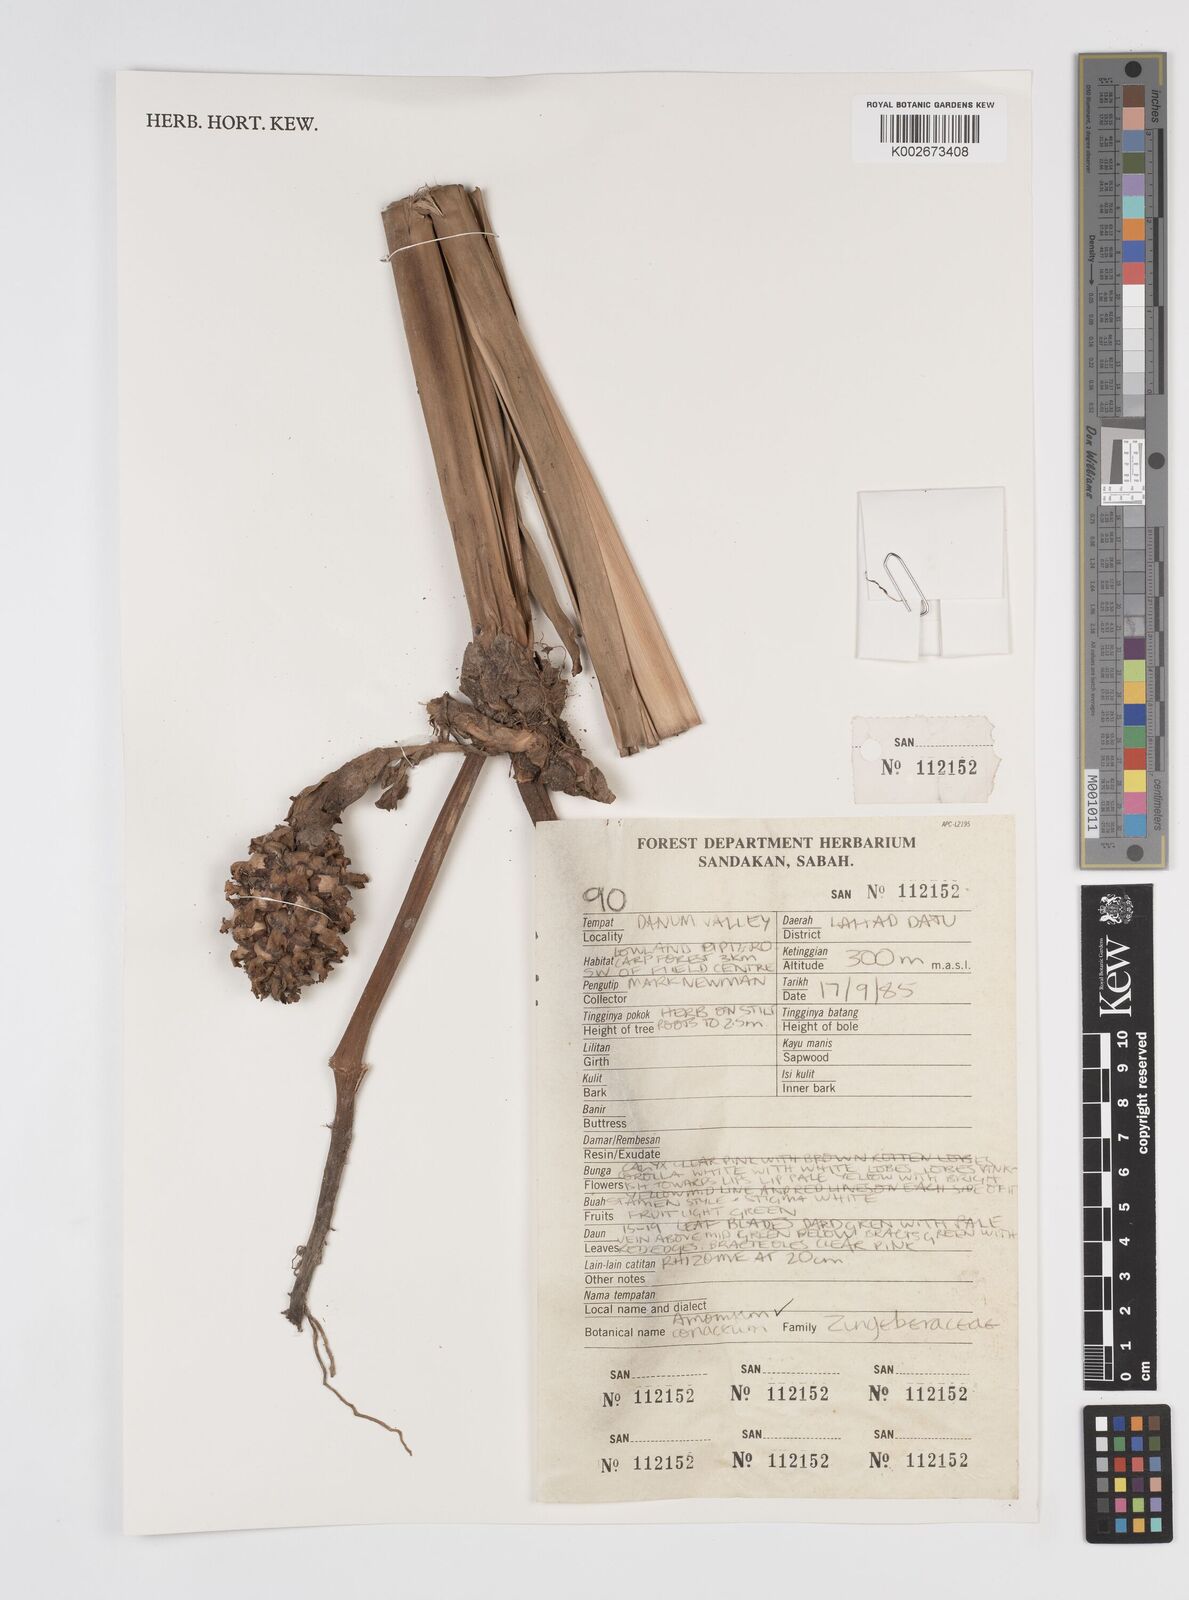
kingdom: Plantae
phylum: Tracheophyta
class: Liliopsida
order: Zingiberales
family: Zingiberaceae
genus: Conamomum
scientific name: Conamomum cylindrostachys
